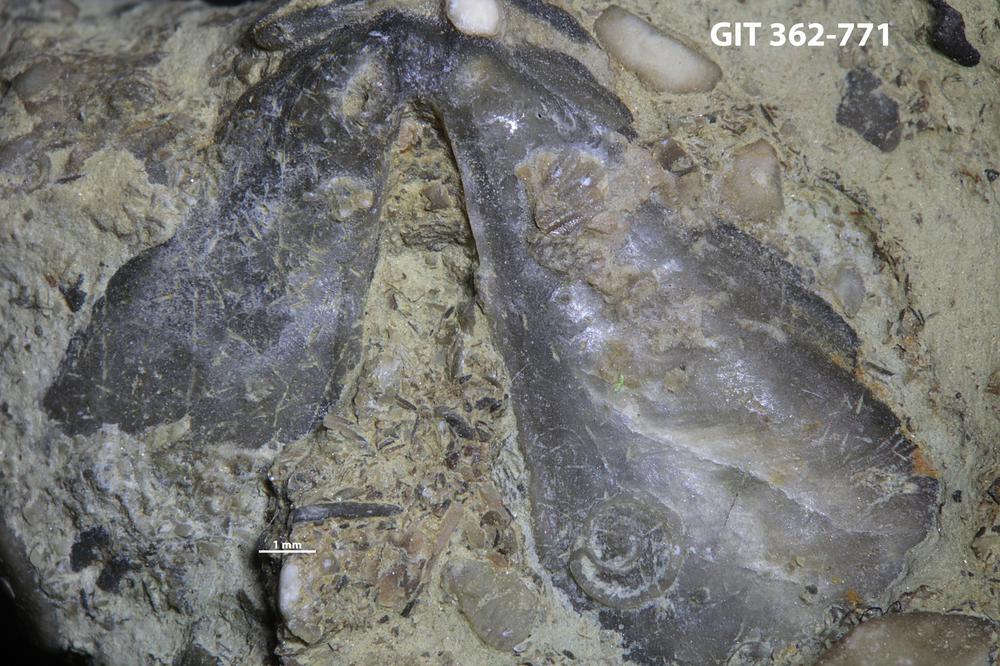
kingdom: Animalia
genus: Pinaceocladichnus
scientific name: Pinaceocladichnus
